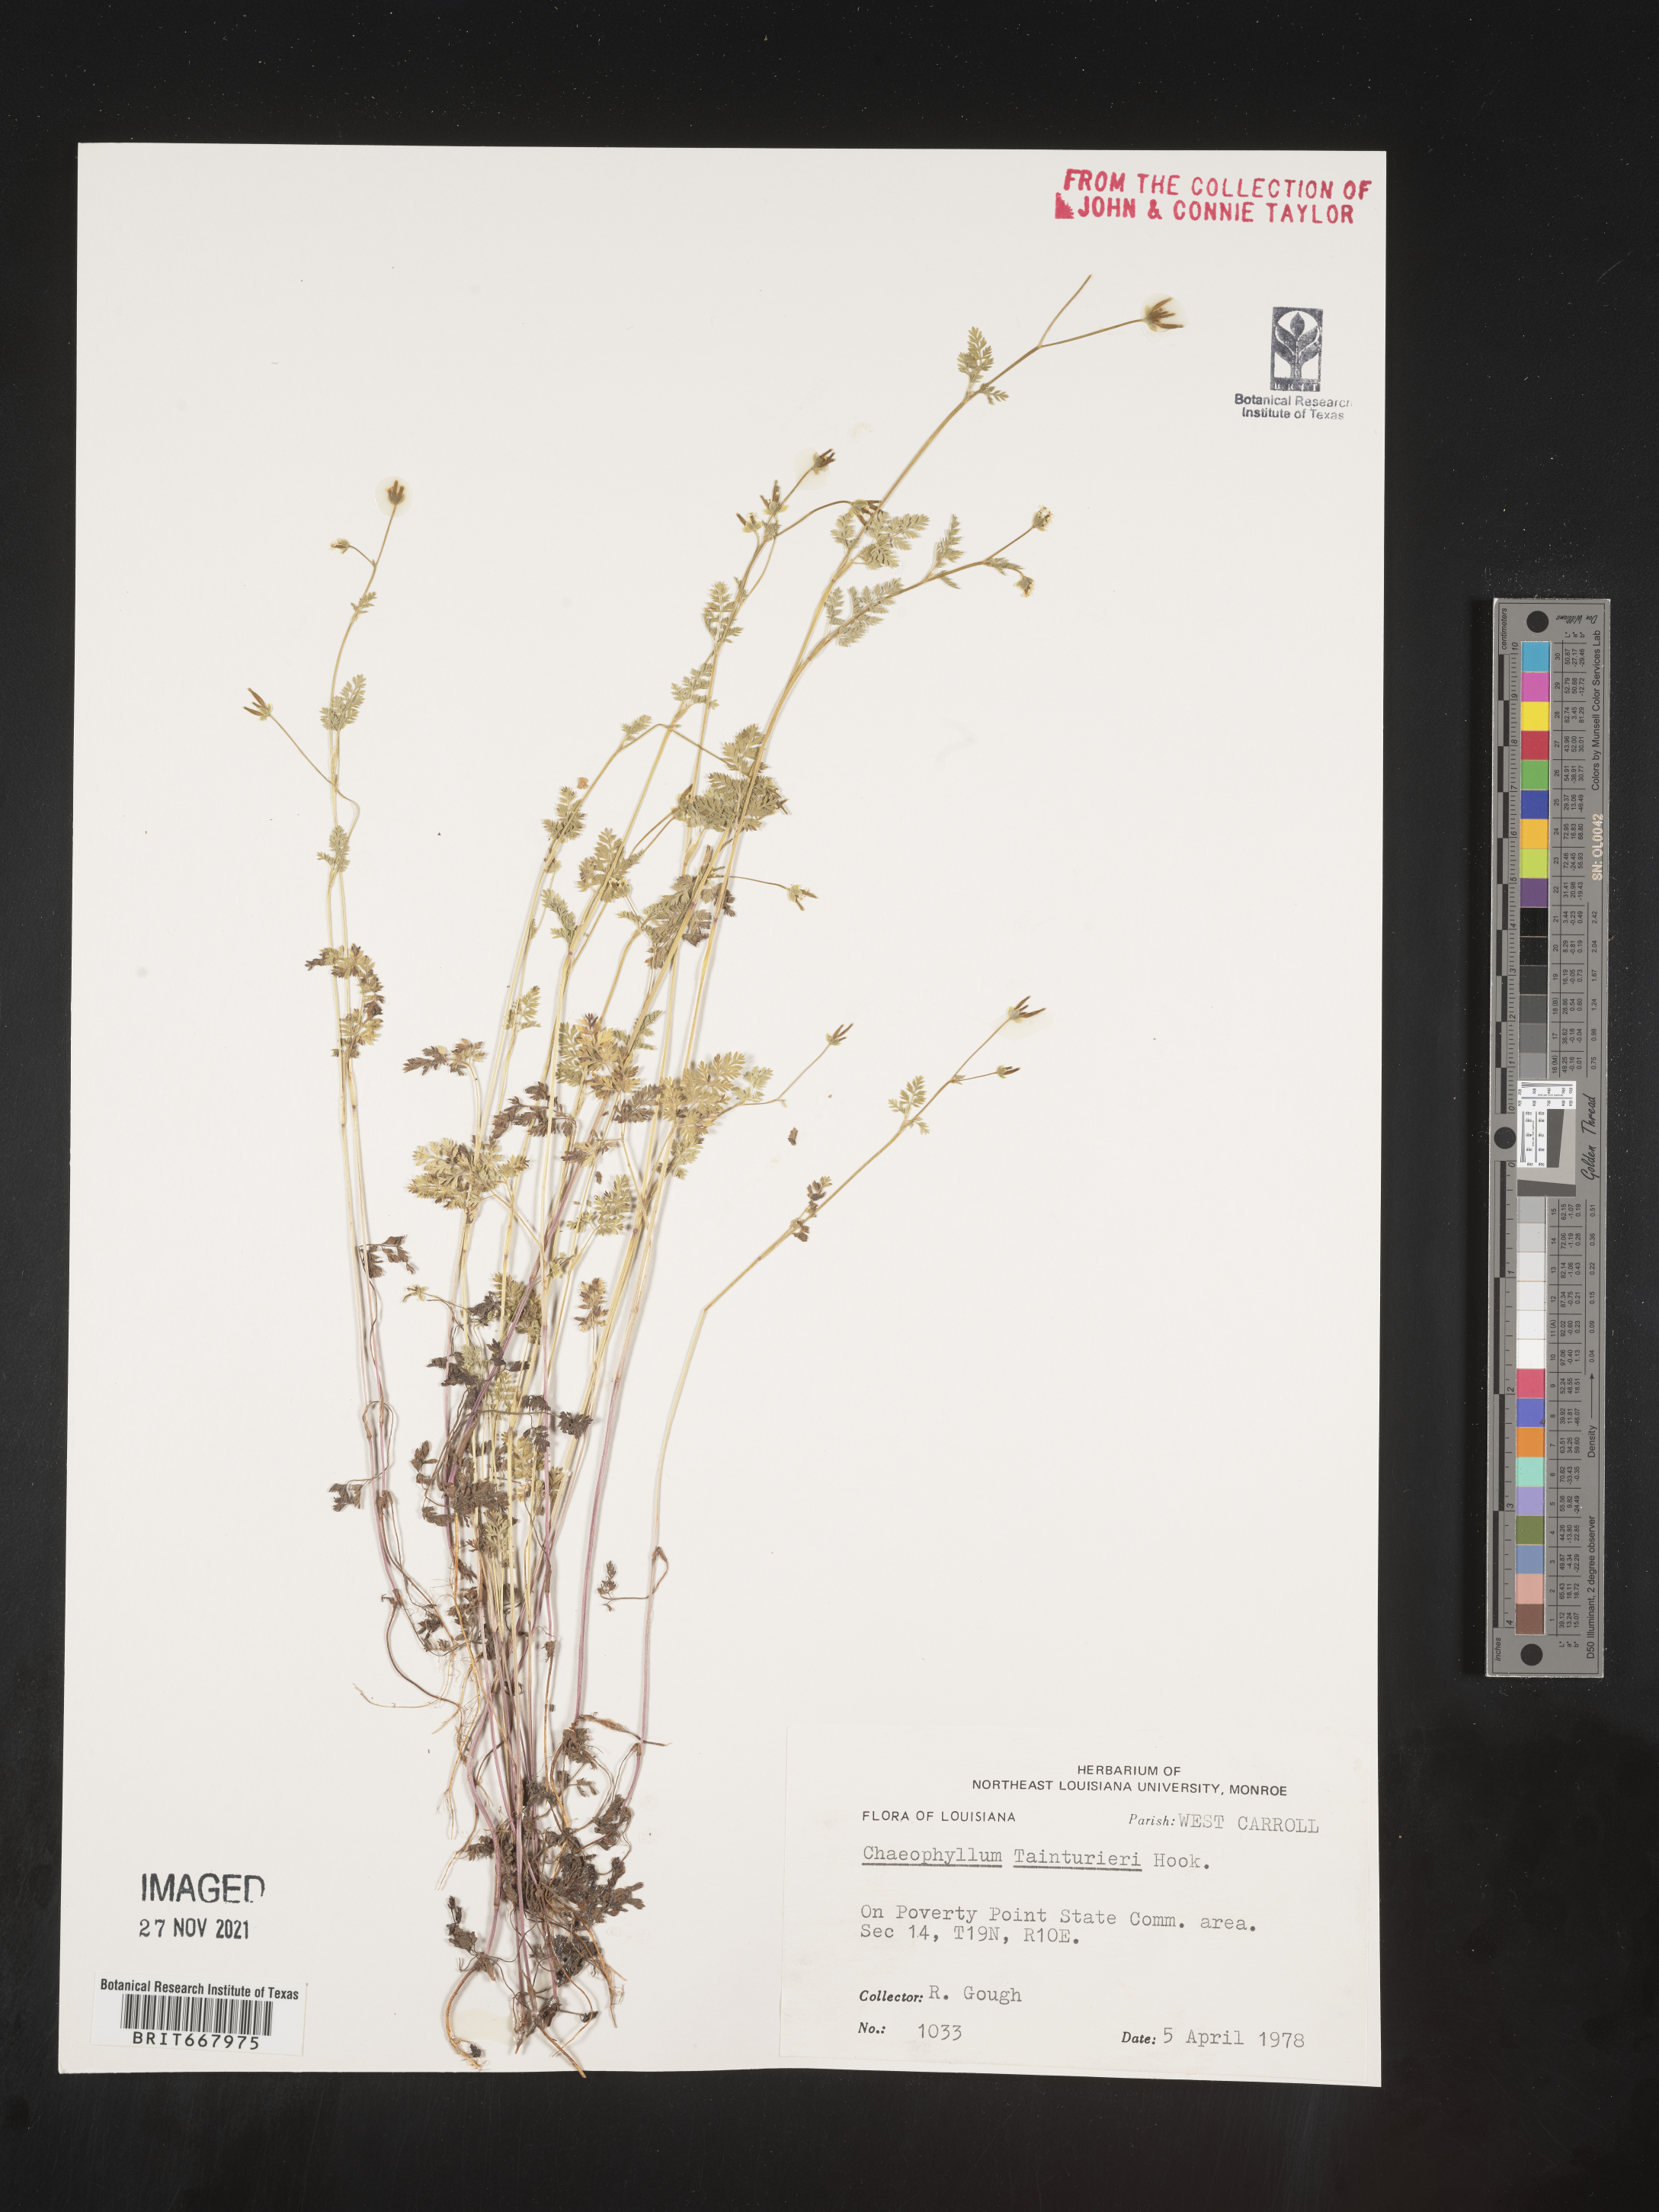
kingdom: Plantae
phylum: Tracheophyta
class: Magnoliopsida
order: Apiales
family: Apiaceae
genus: Chaerophyllum
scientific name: Chaerophyllum tainturieri
